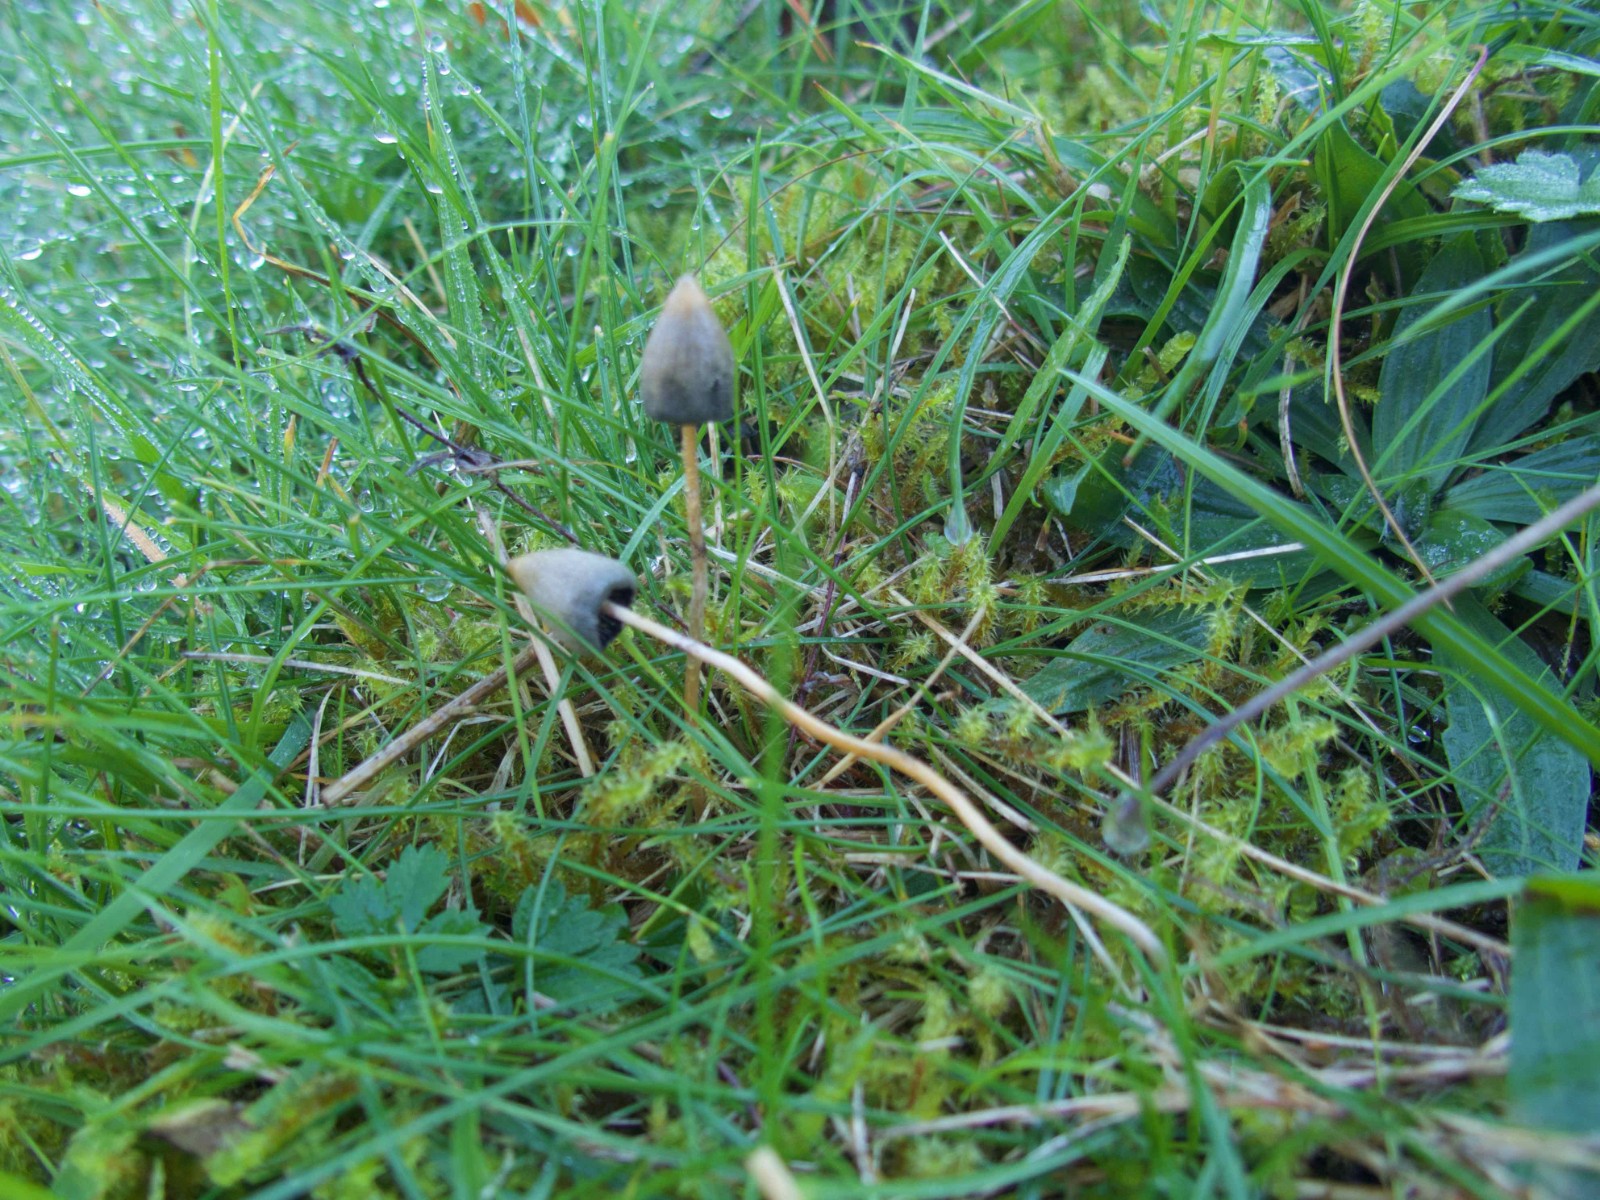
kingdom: Fungi
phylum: Basidiomycota
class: Agaricomycetes
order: Agaricales
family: Hymenogastraceae
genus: Psilocybe
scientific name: Psilocybe semilanceata
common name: spids nøgenhat
